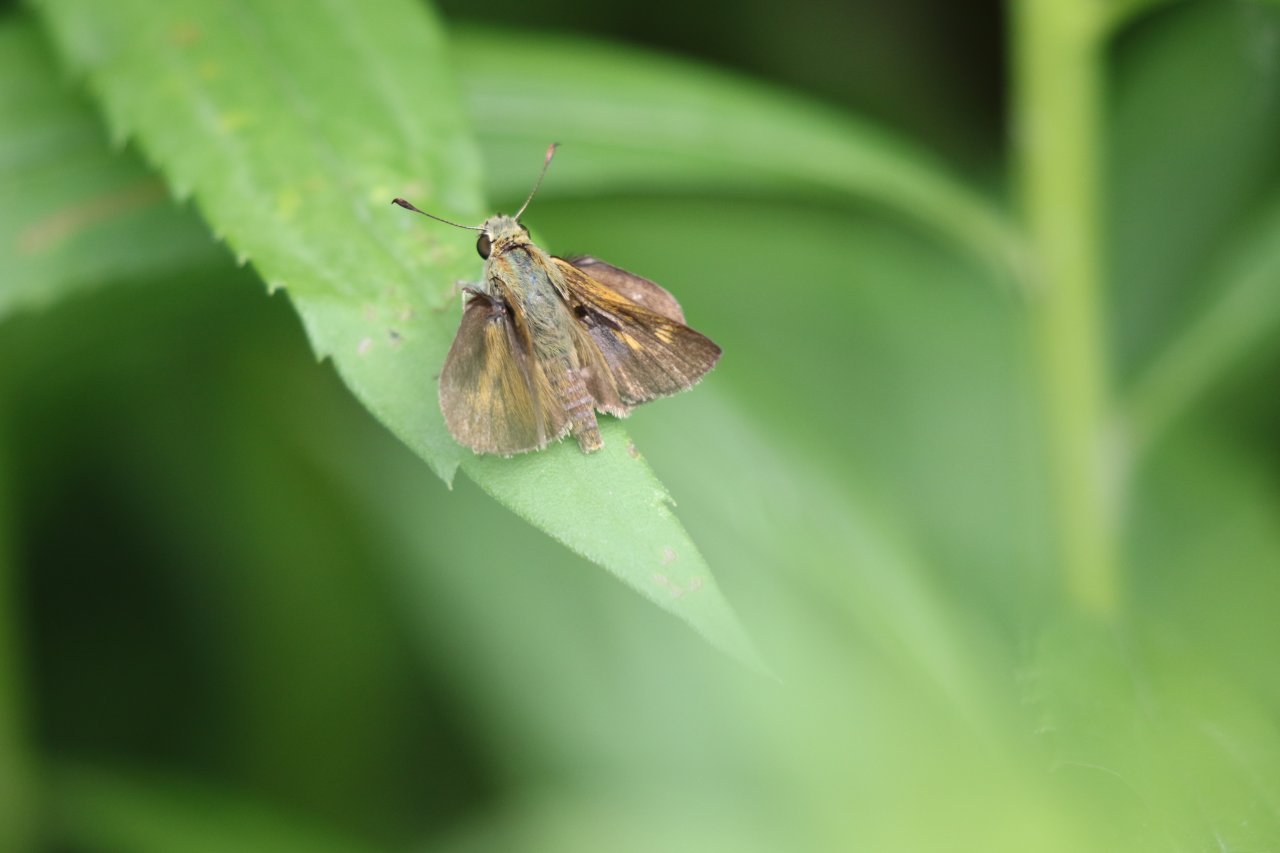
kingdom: Animalia
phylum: Arthropoda
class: Insecta
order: Lepidoptera
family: Hesperiidae
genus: Polites
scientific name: Polites egeremet
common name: Northern Broken-Dash
